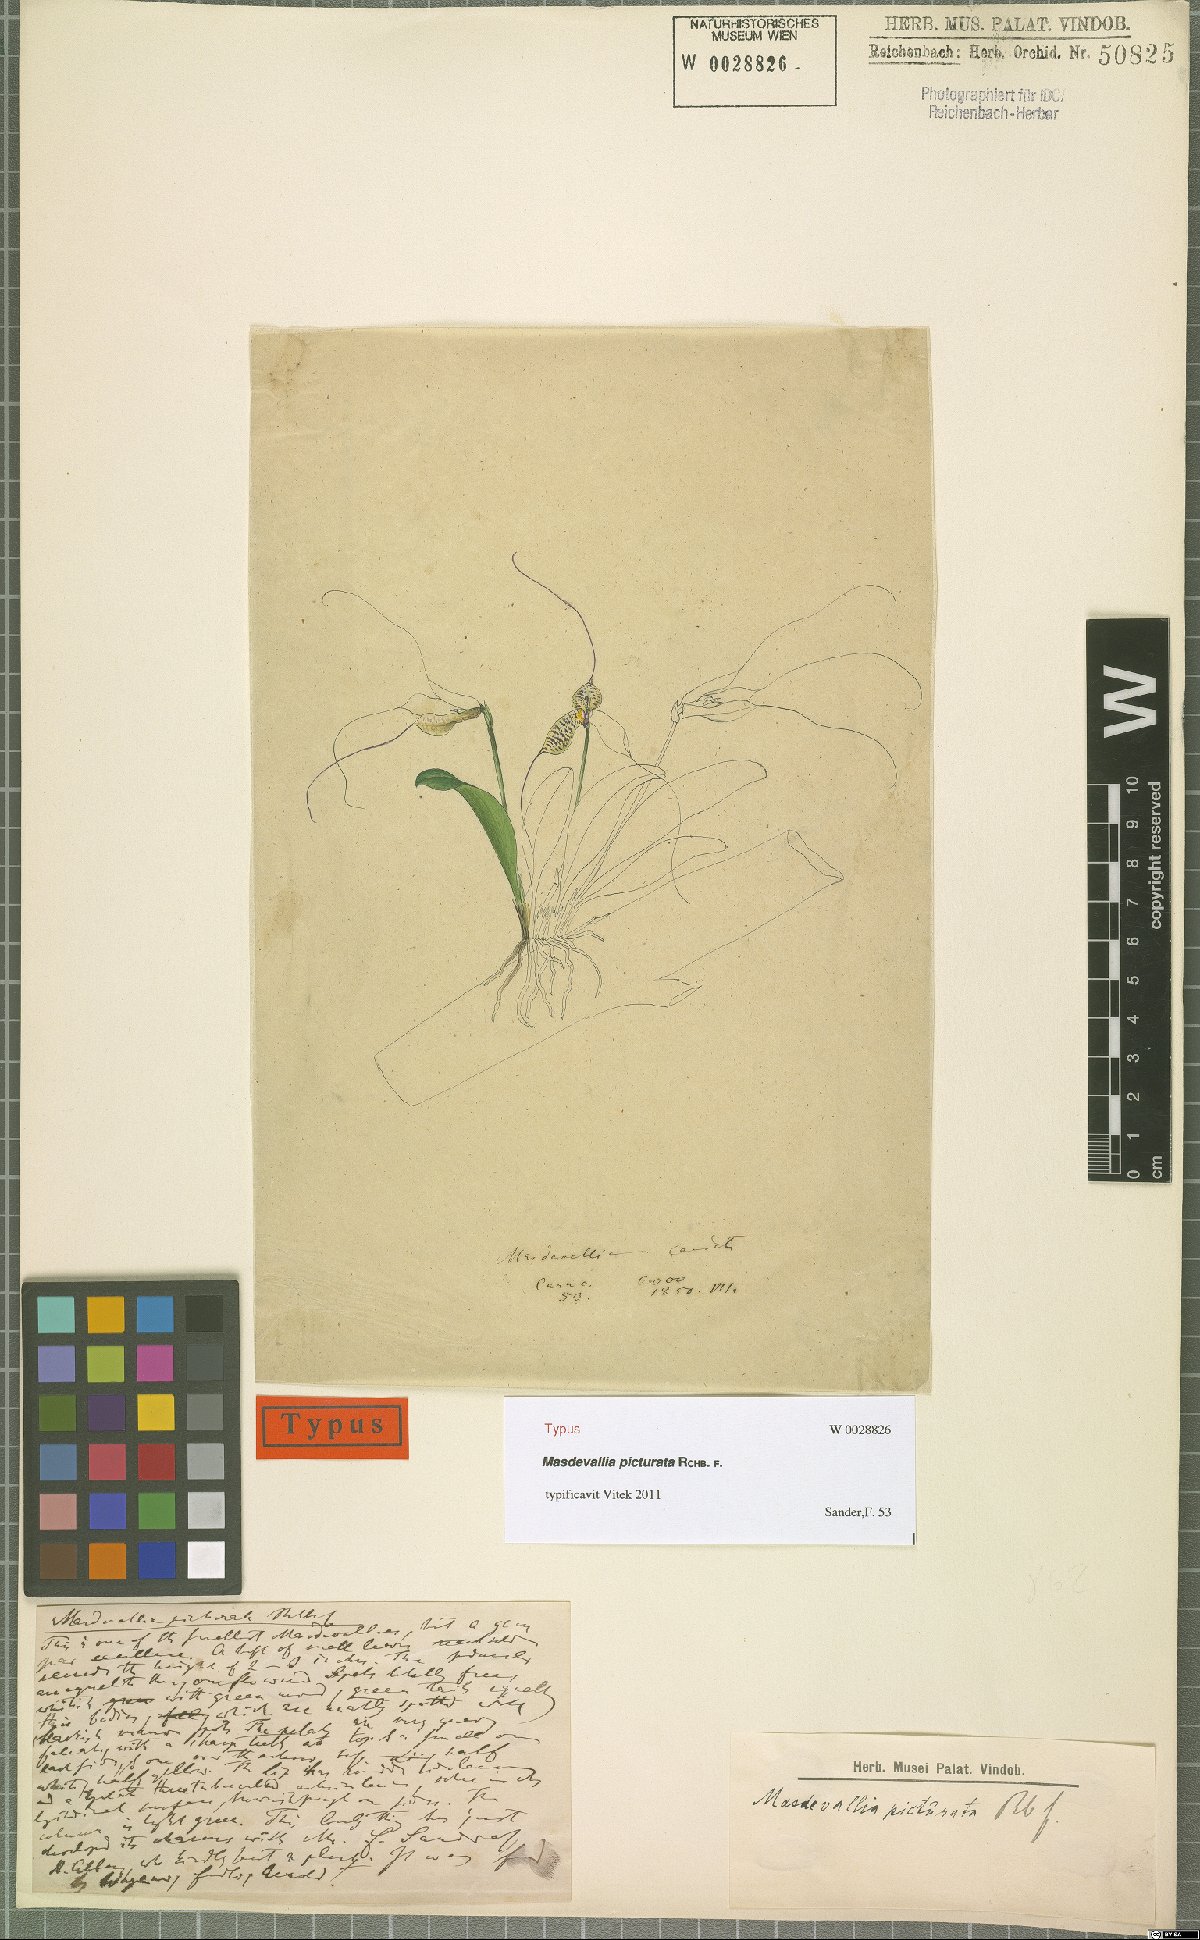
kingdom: Plantae
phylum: Tracheophyta
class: Liliopsida
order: Asparagales
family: Orchidaceae
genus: Masdevallia
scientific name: Masdevallia picturata
